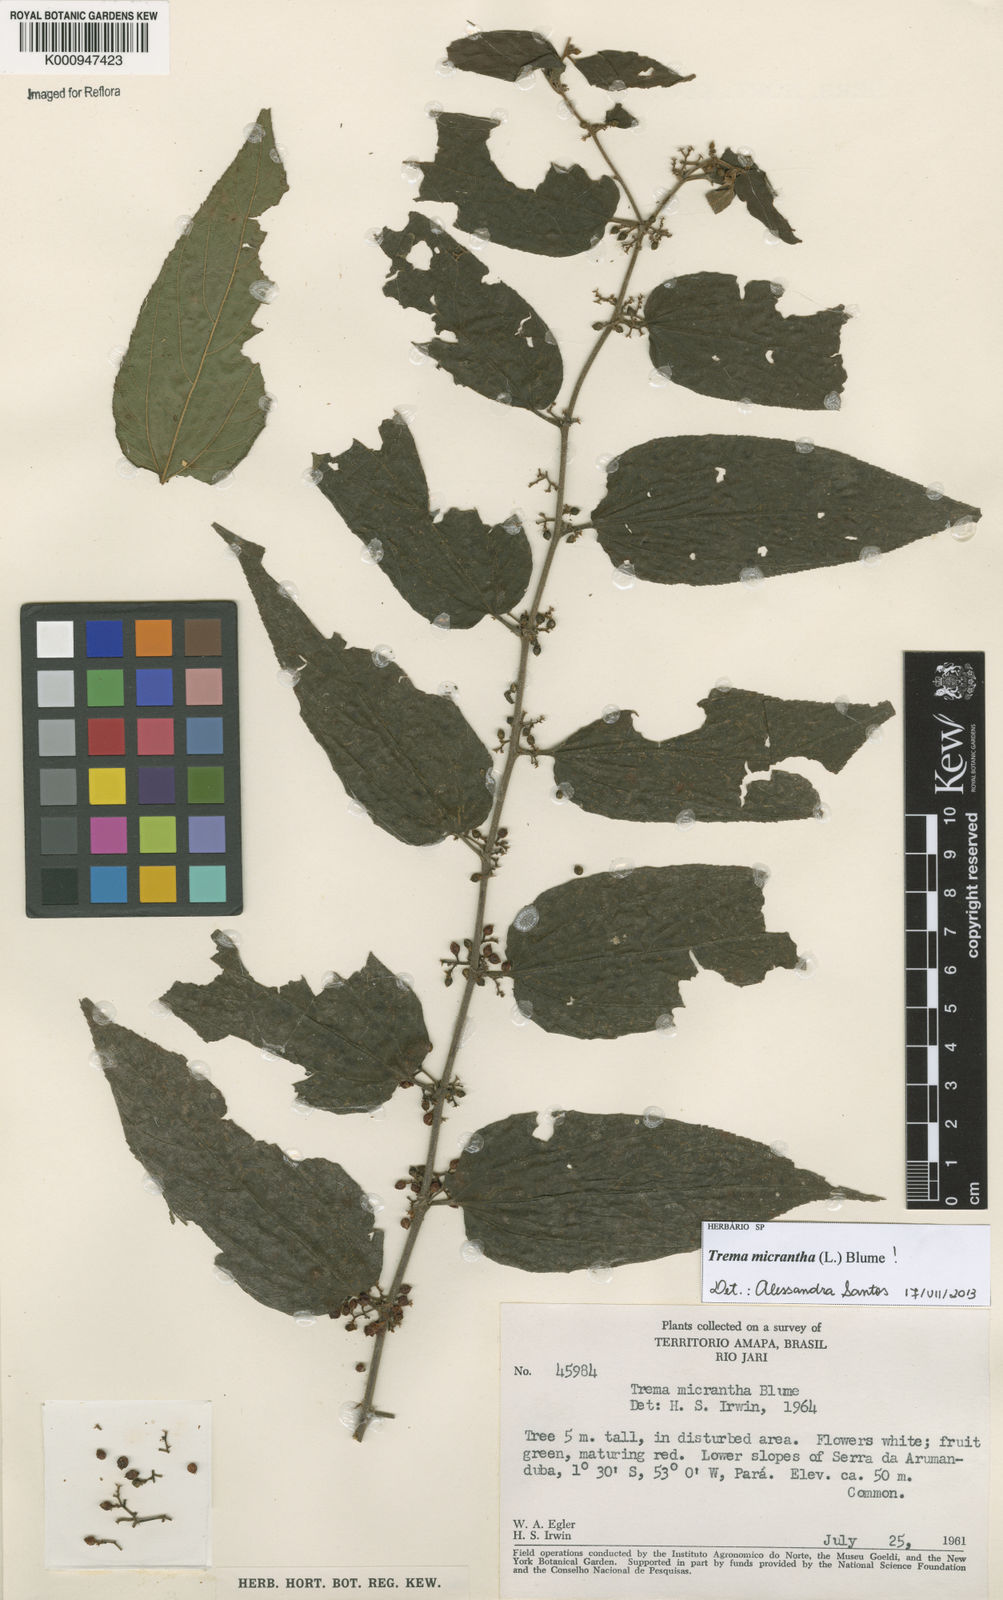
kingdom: Plantae
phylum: Tracheophyta
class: Magnoliopsida
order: Rosales
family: Cannabaceae
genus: Trema
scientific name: Trema micranthum
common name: Jamaican nettletree
